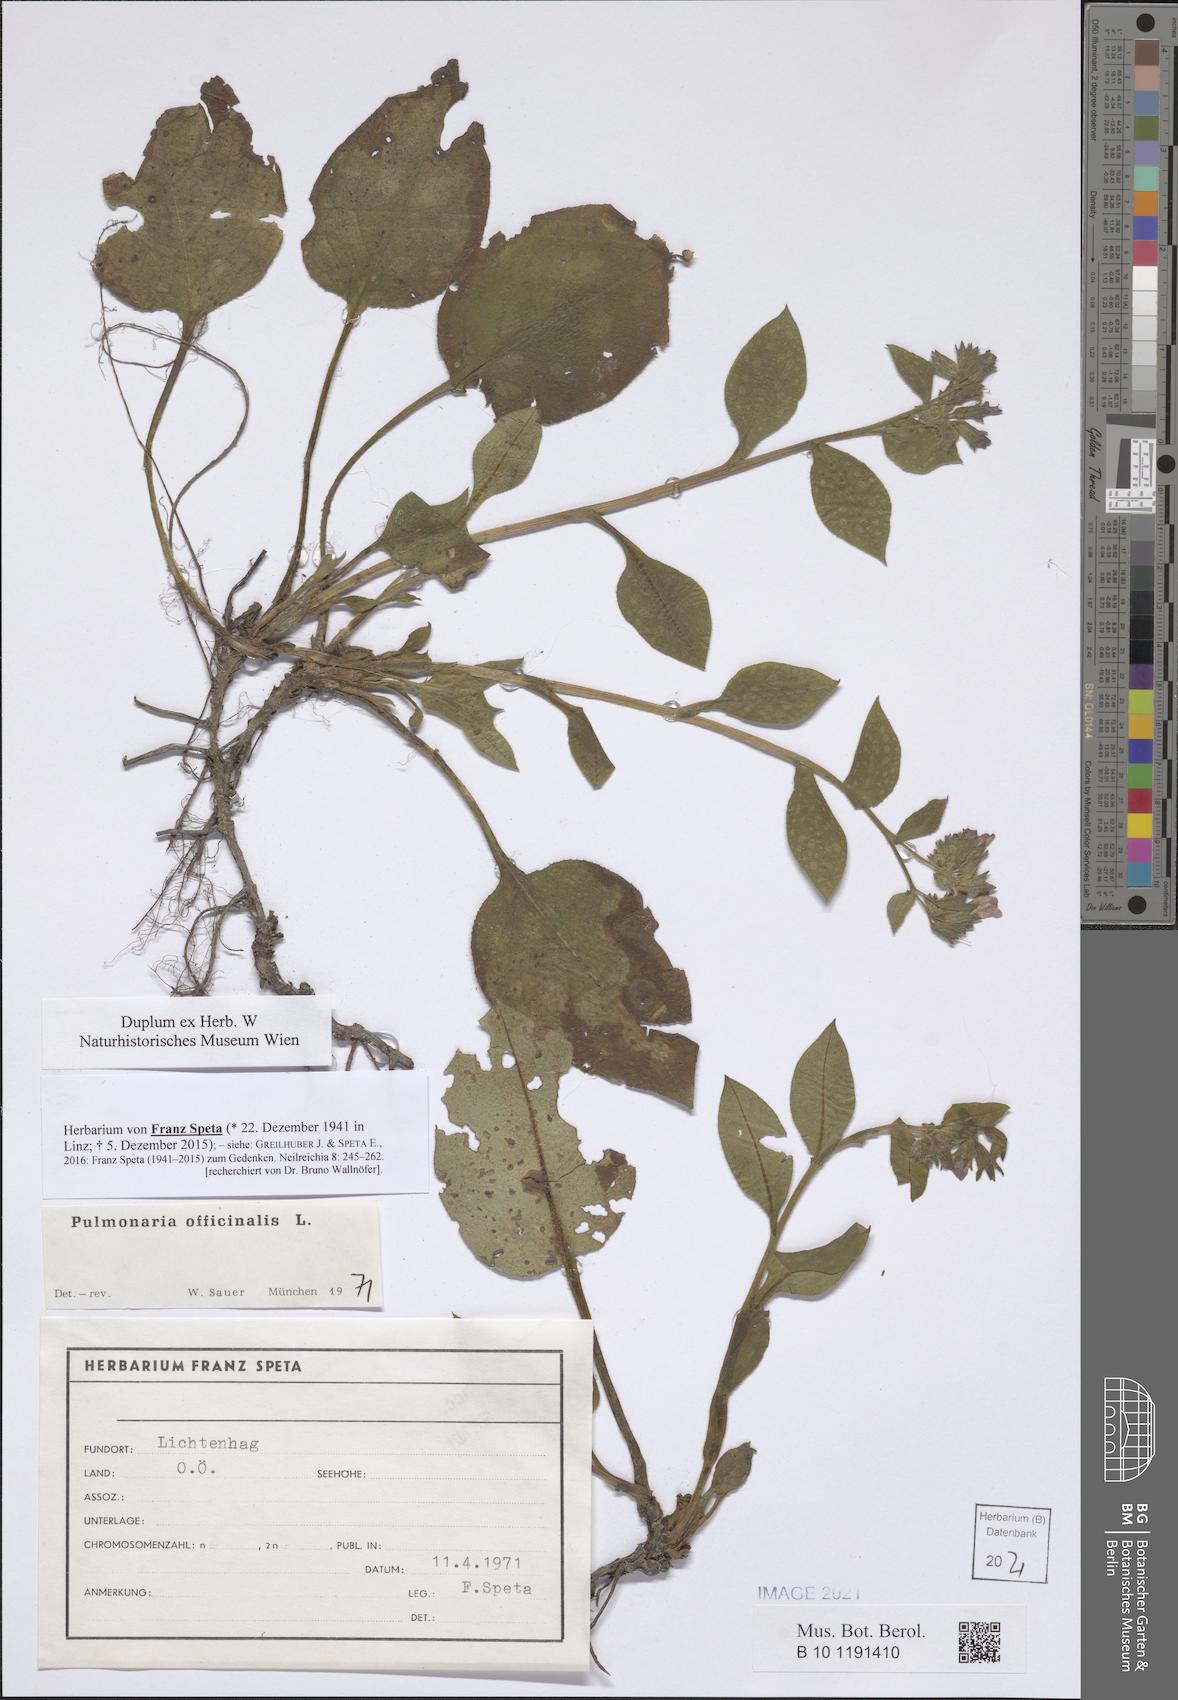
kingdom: Plantae
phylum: Tracheophyta
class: Magnoliopsida
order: Boraginales
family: Boraginaceae
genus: Pulmonaria
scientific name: Pulmonaria officinalis
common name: Lungwort
